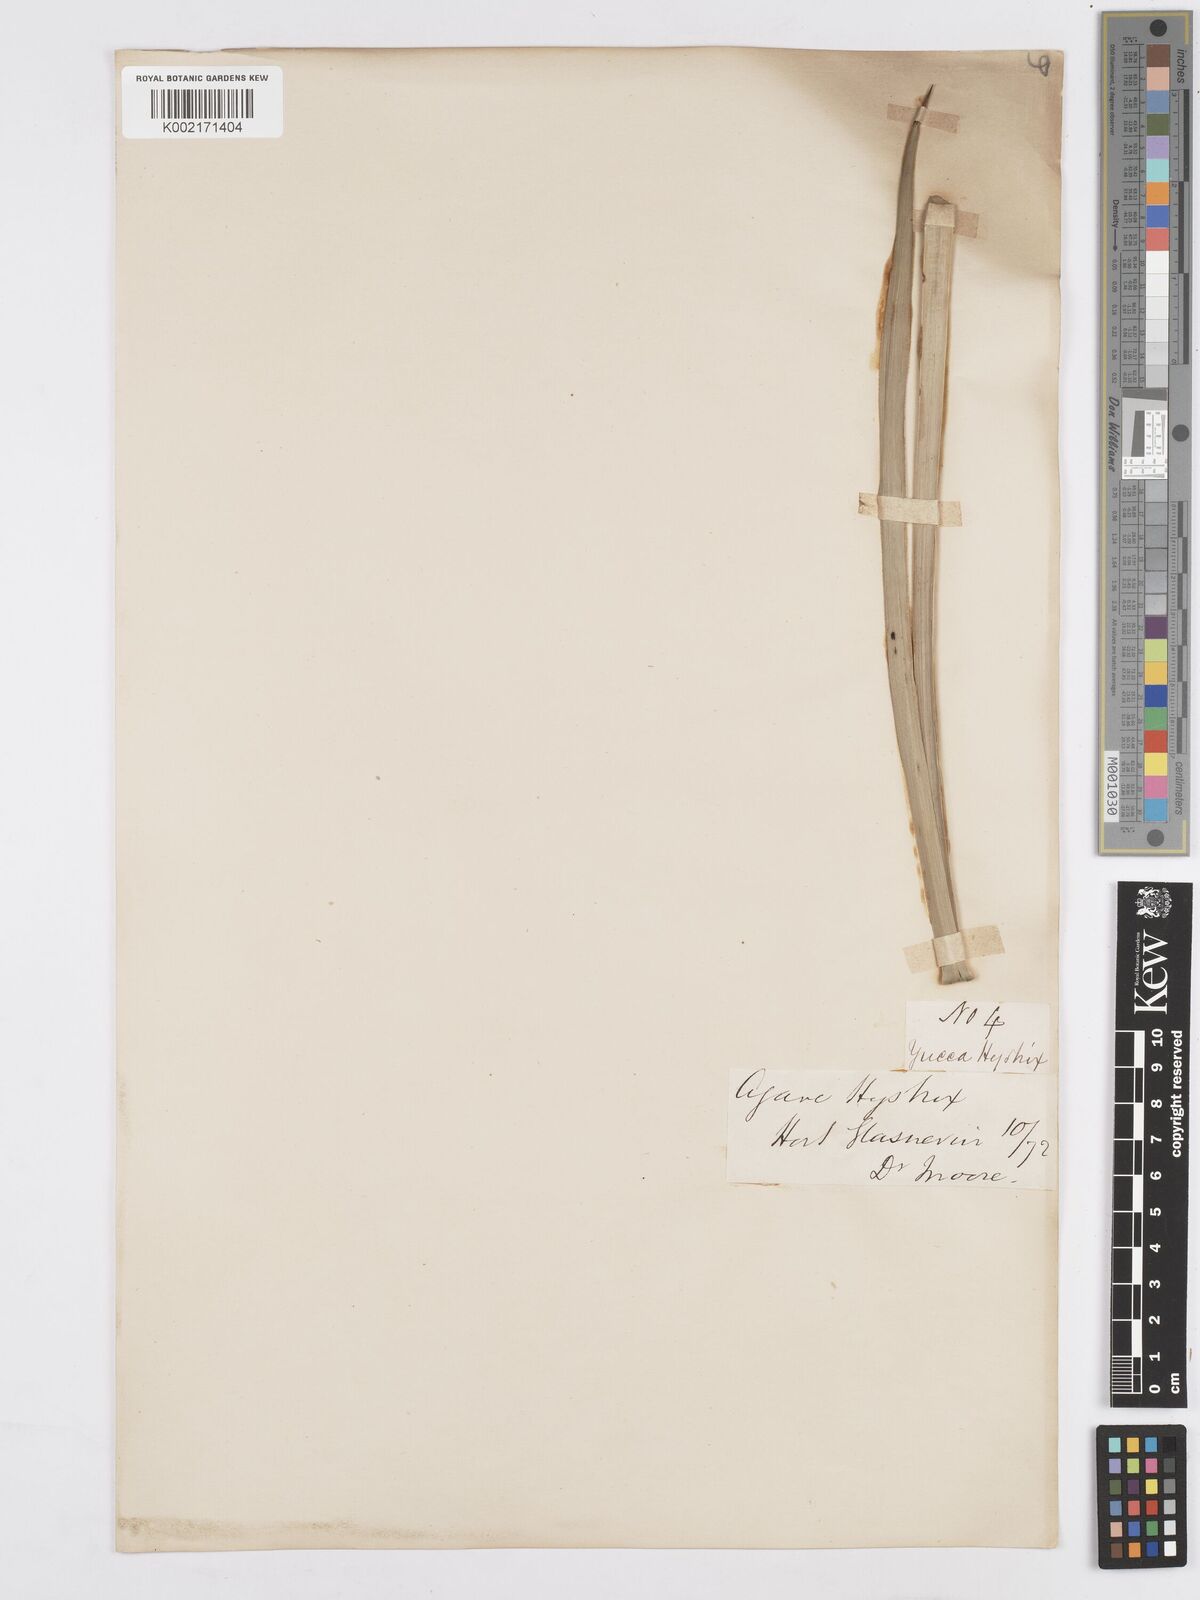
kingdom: Plantae
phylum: Tracheophyta
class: Liliopsida
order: Asparagales
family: Asparagaceae
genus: Agave
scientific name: Agave striata
